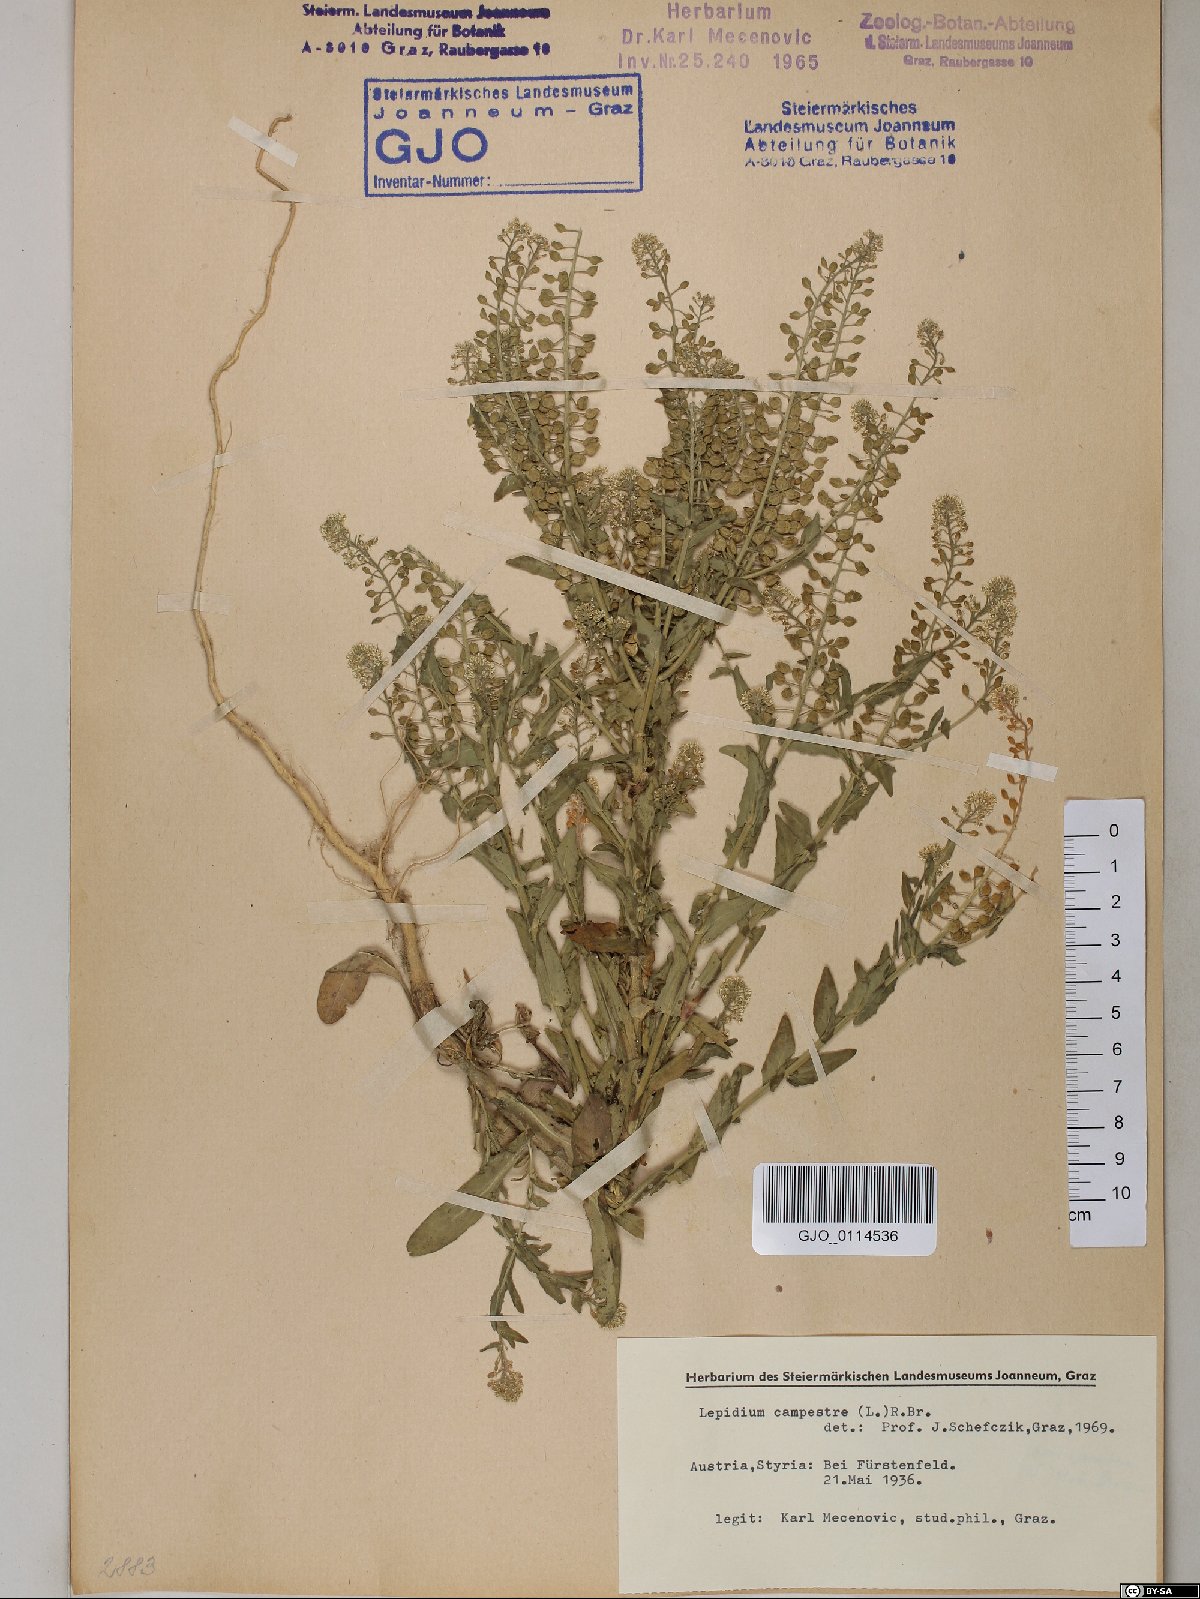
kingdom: Plantae
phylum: Tracheophyta
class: Magnoliopsida
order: Brassicales
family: Brassicaceae
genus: Lepidium
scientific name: Lepidium campestre
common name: Field pepperwort
